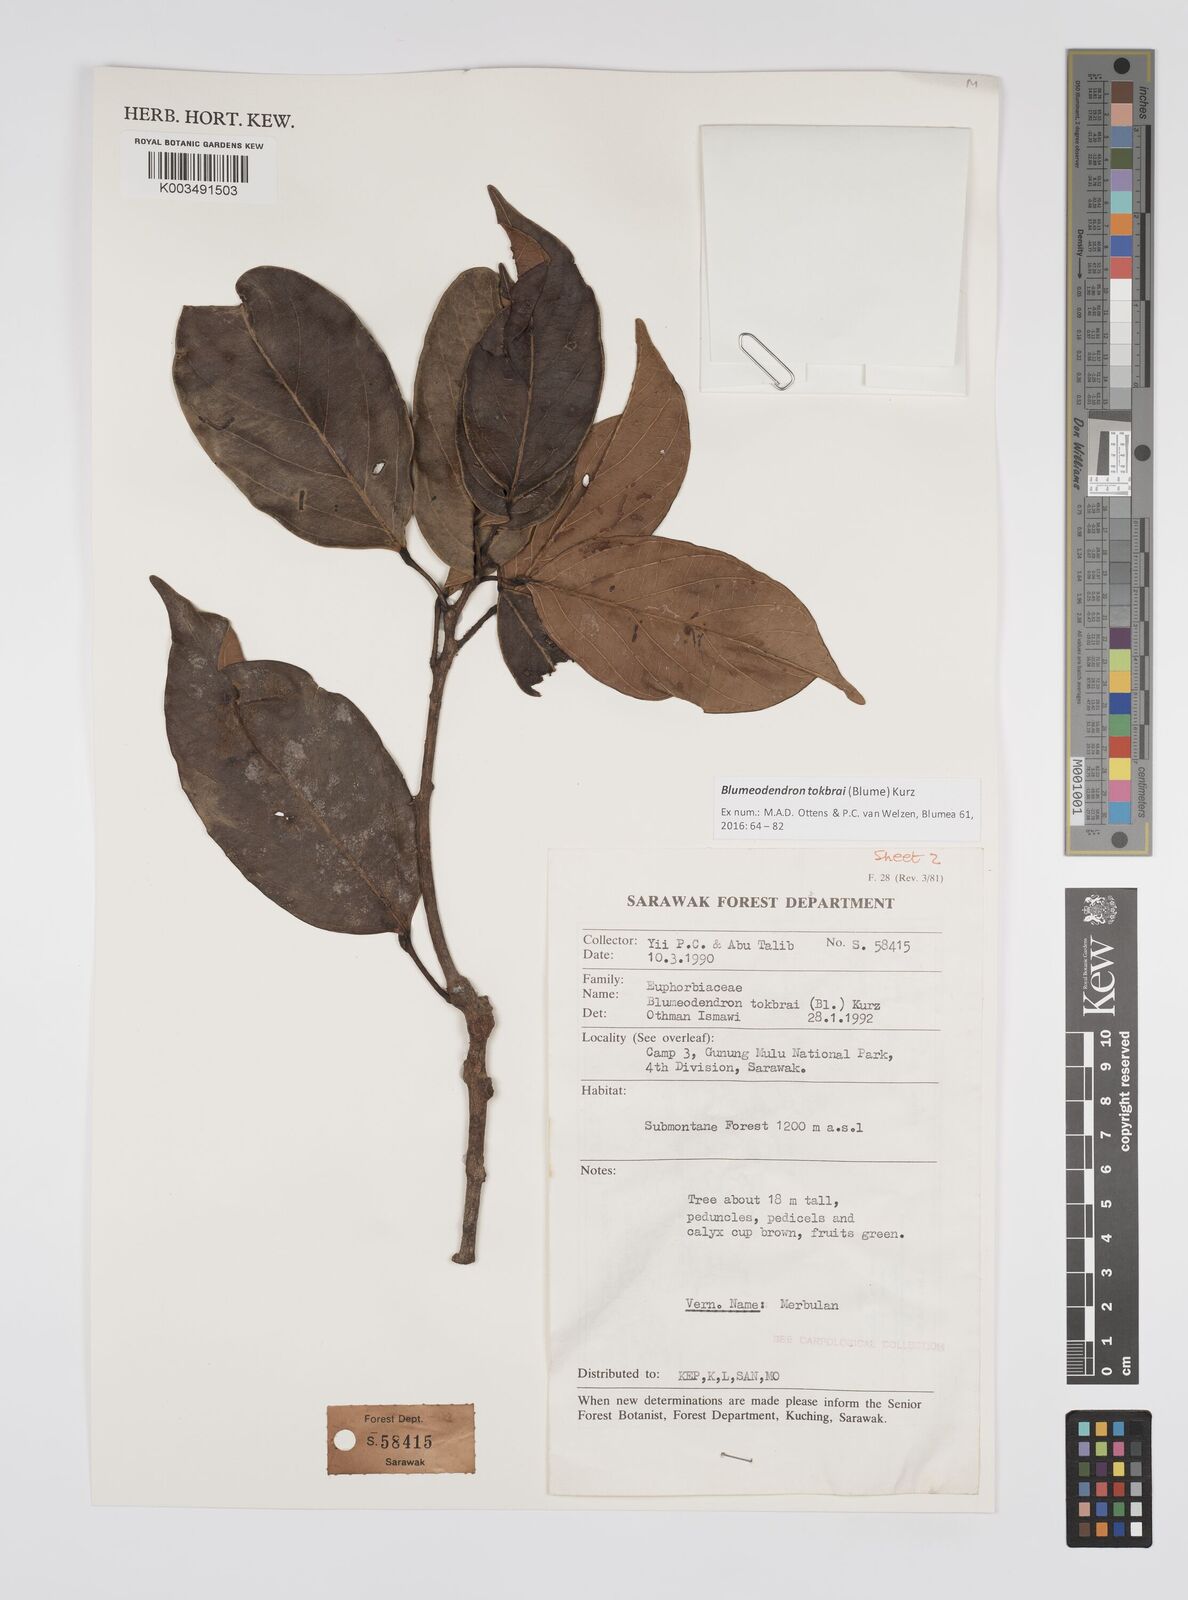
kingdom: Plantae
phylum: Tracheophyta
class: Magnoliopsida
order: Malpighiales
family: Euphorbiaceae
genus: Blumeodendron
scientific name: Blumeodendron tokbrai
